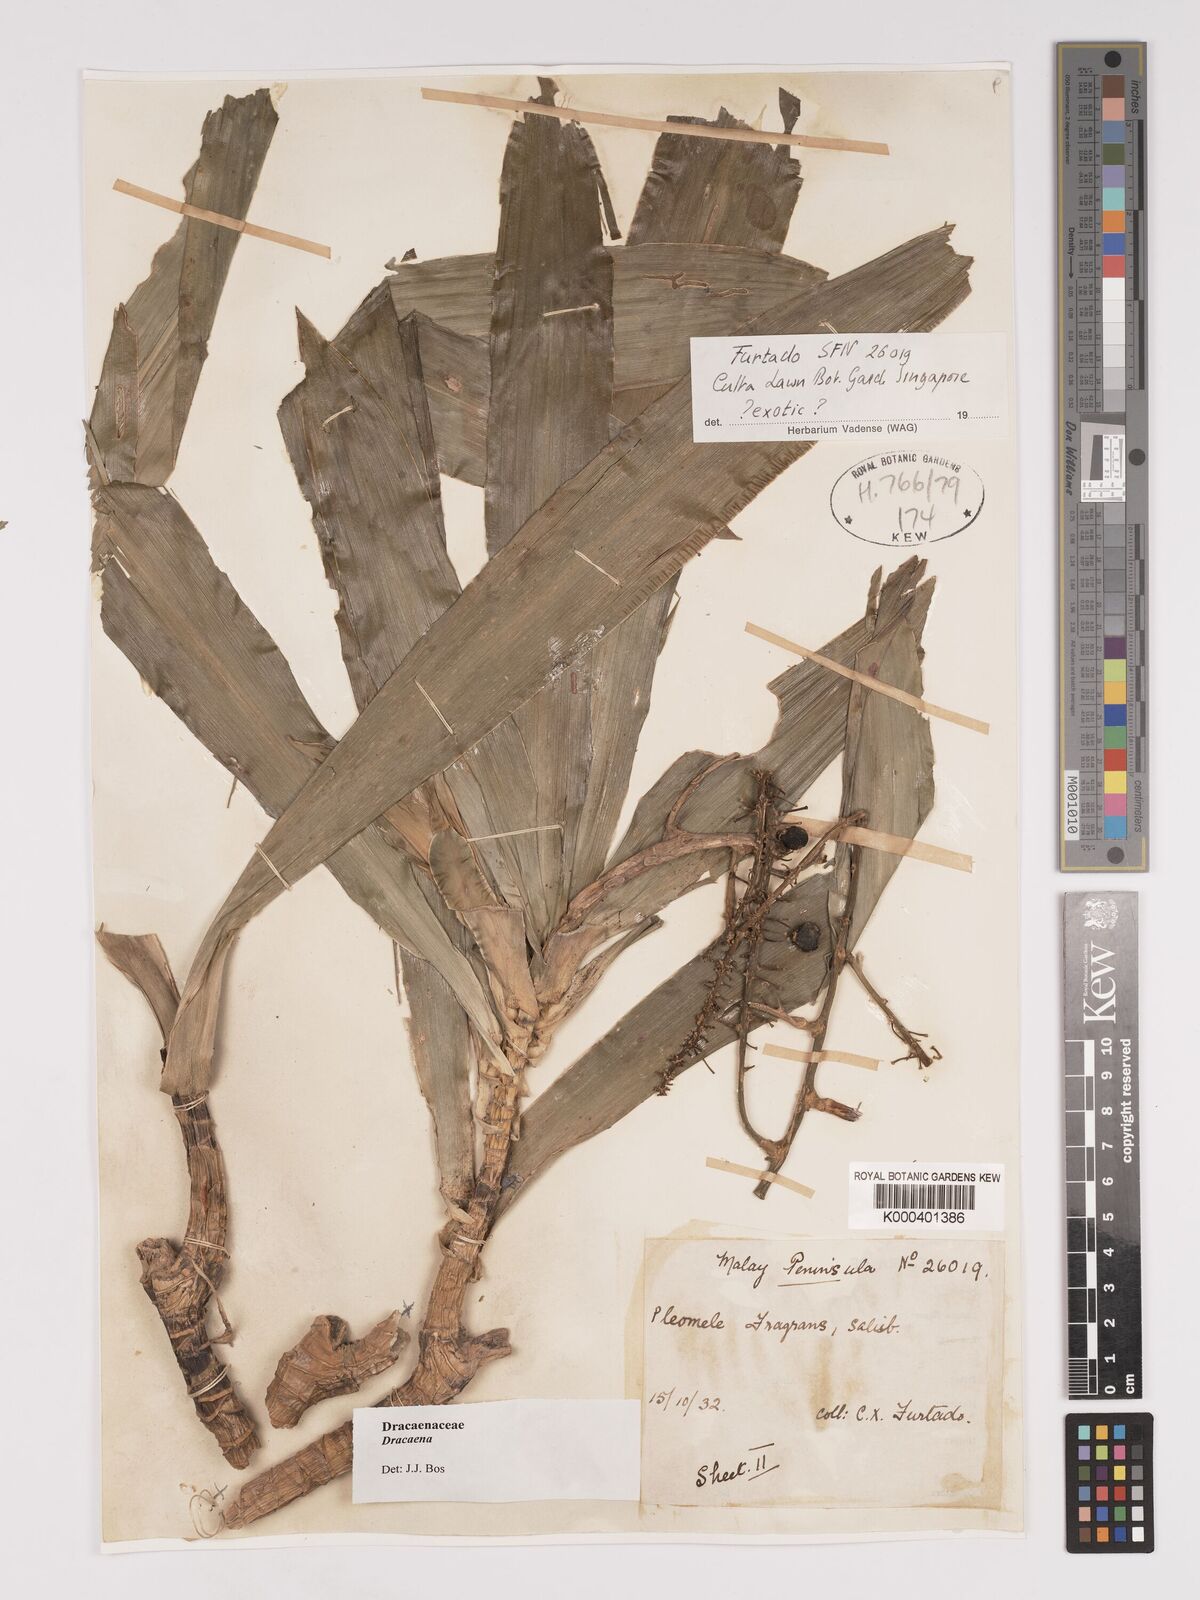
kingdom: Plantae
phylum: Tracheophyta
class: Liliopsida
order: Asparagales
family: Asparagaceae
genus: Dracaena
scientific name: Dracaena
